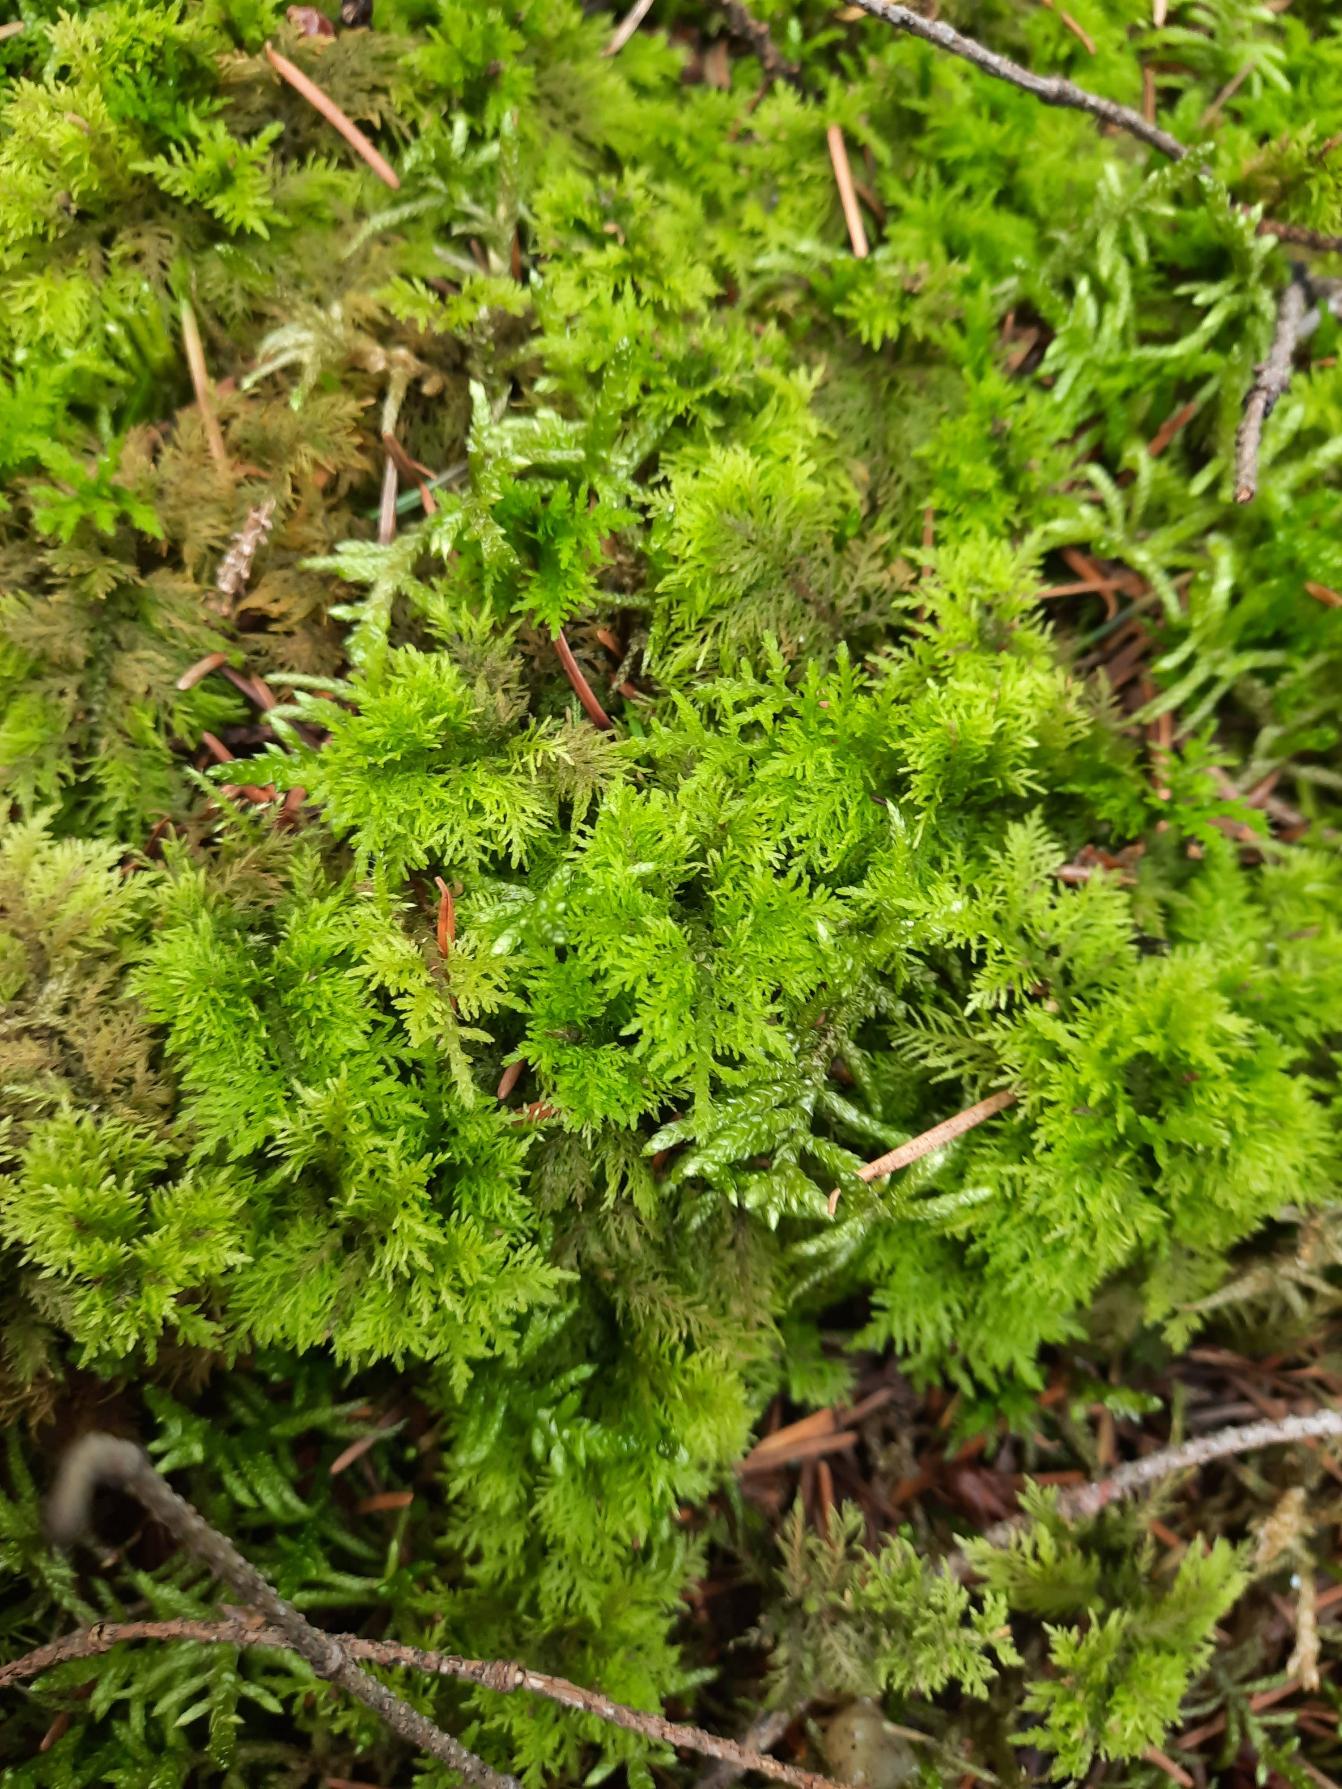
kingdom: Plantae
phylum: Bryophyta
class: Bryopsida
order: Hypnales
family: Thuidiaceae
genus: Thuidium
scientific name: Thuidium tamariscinum
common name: Pryd-bregnemos
